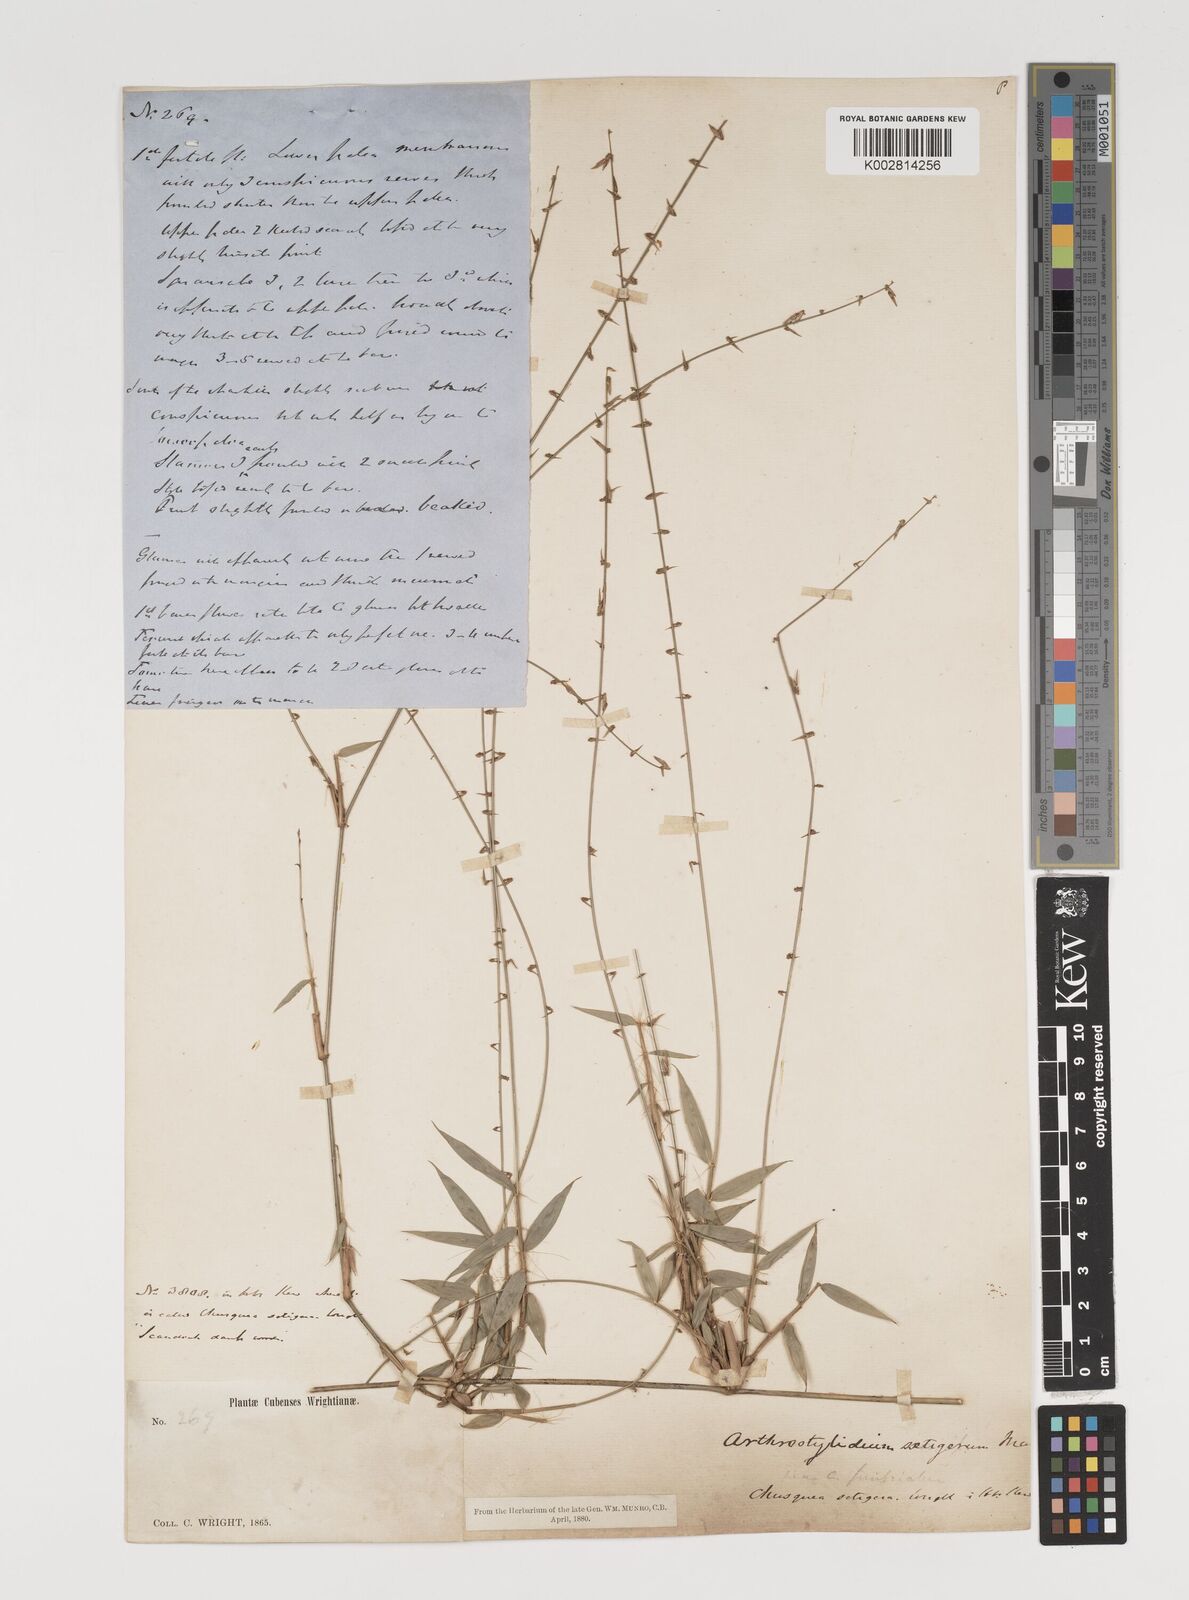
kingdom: Plantae
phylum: Tracheophyta
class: Liliopsida
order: Poales
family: Poaceae
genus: Arthrostylidium
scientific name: Arthrostylidium distichum
